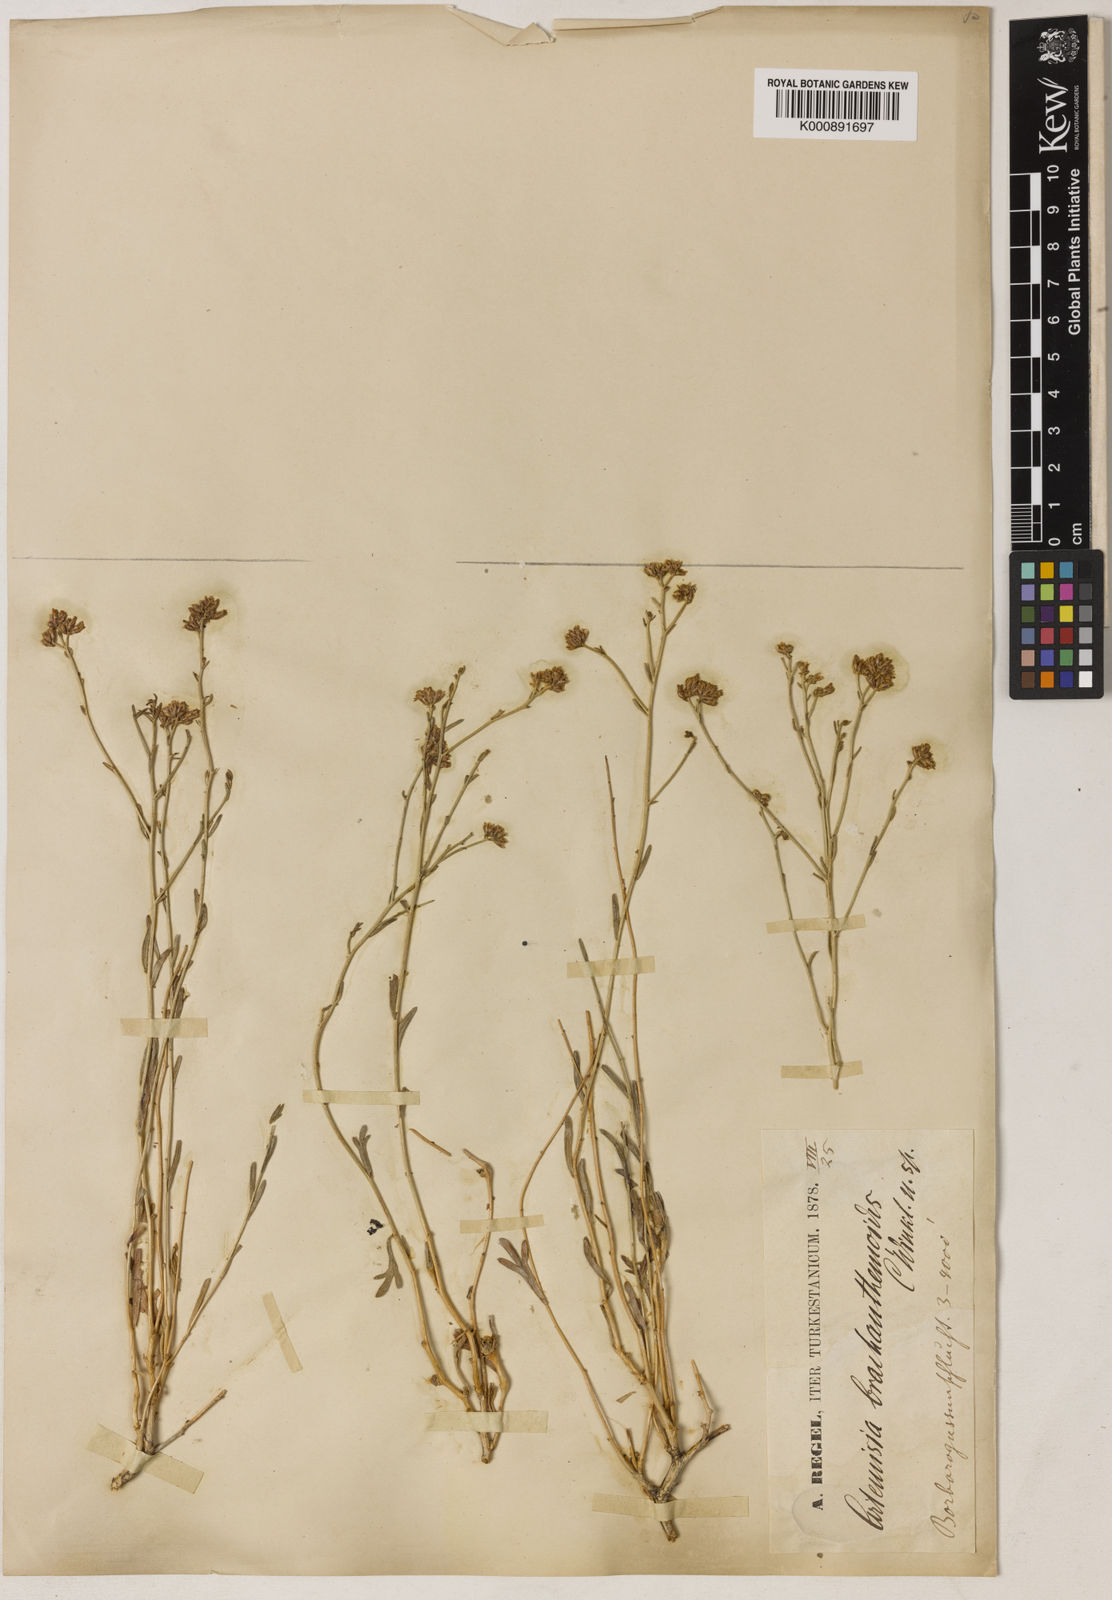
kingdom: Plantae
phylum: Tracheophyta
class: Magnoliopsida
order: Asterales
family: Asteraceae
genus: Kaschgaria
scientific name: Kaschgaria komarovii
